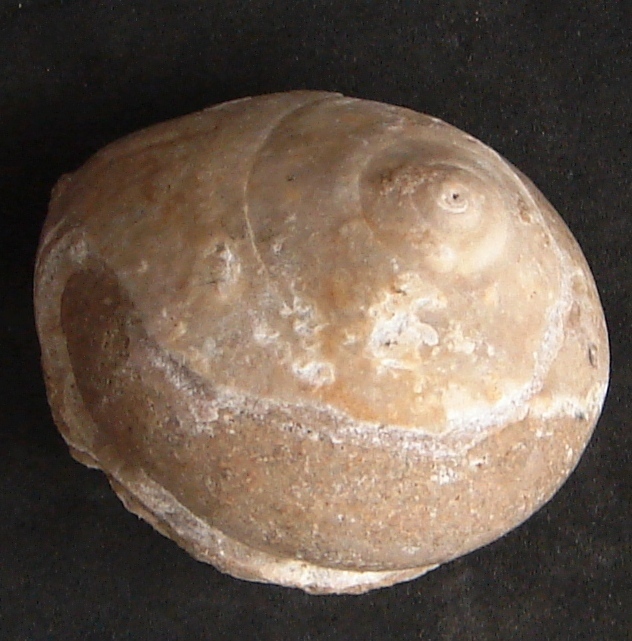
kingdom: Animalia
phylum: Mollusca
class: Gastropoda
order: Pleurotomariida
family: Ptychomphalidae
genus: Ptychomphalus
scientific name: Ptychomphalus Pleurotomaria rotellaeformis
